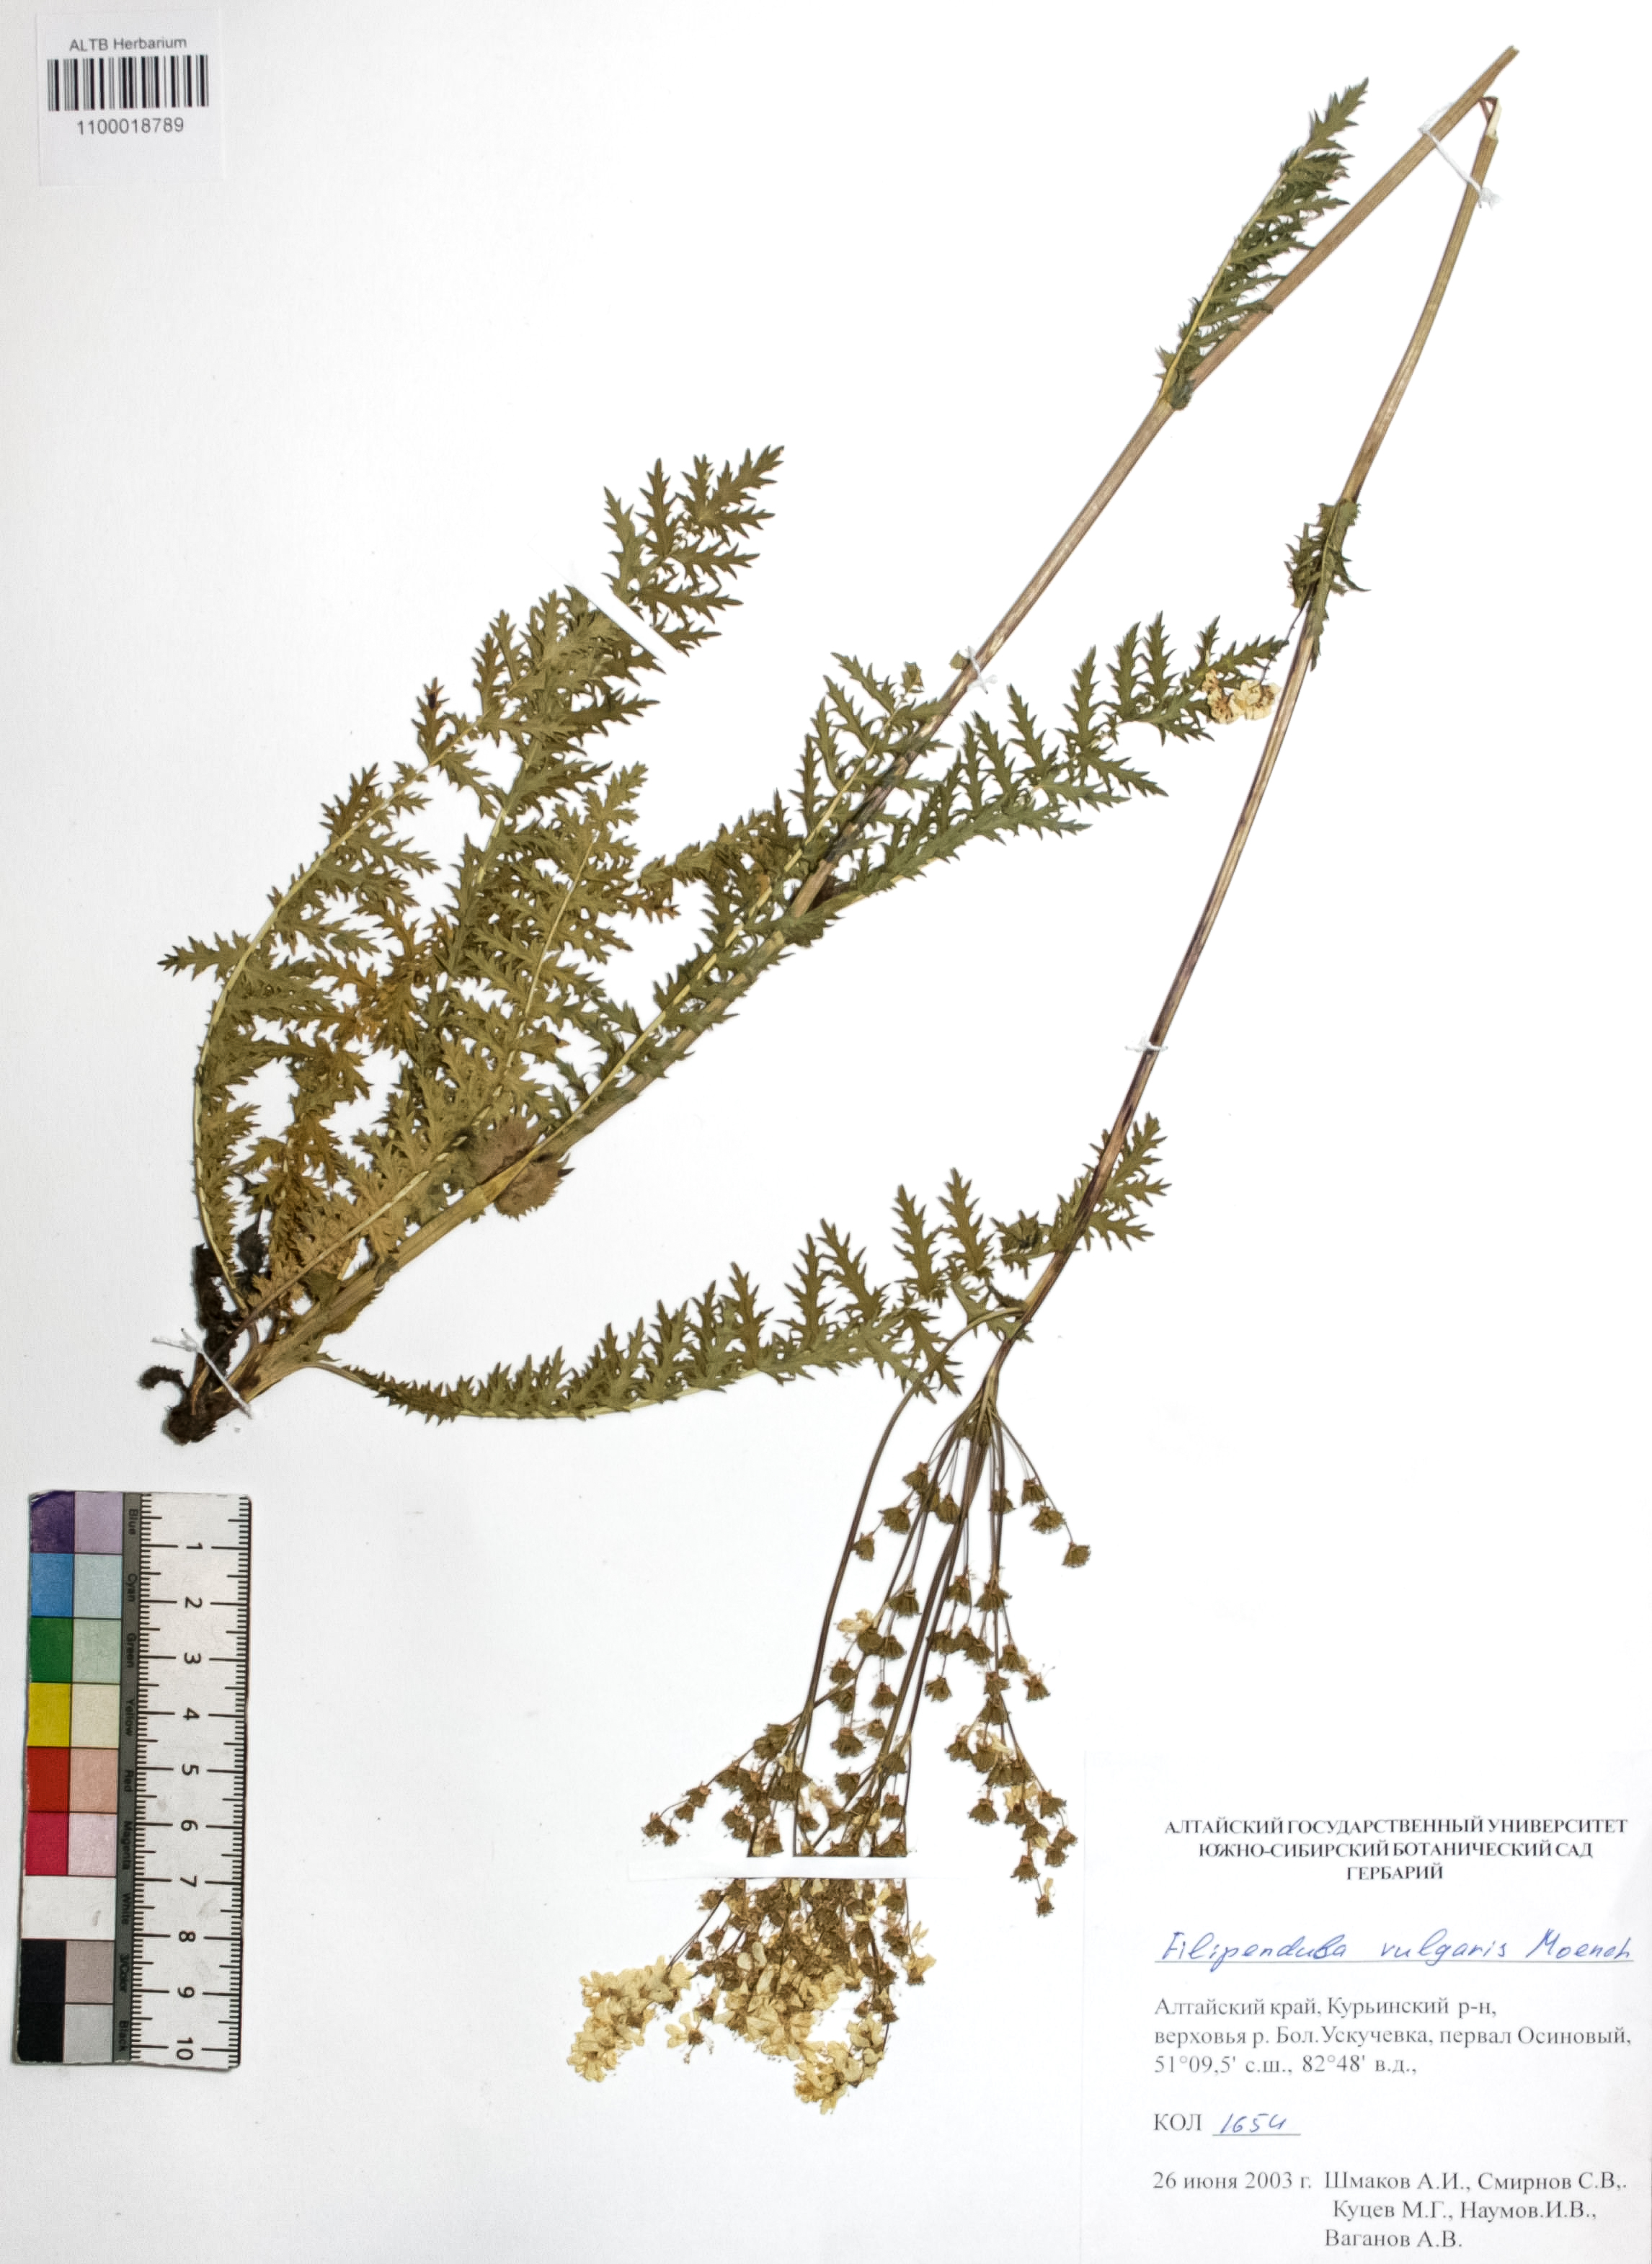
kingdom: Plantae
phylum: Tracheophyta
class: Magnoliopsida
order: Rosales
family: Rosaceae
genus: Filipendula
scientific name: Filipendula vulgaris
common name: Dropwort
